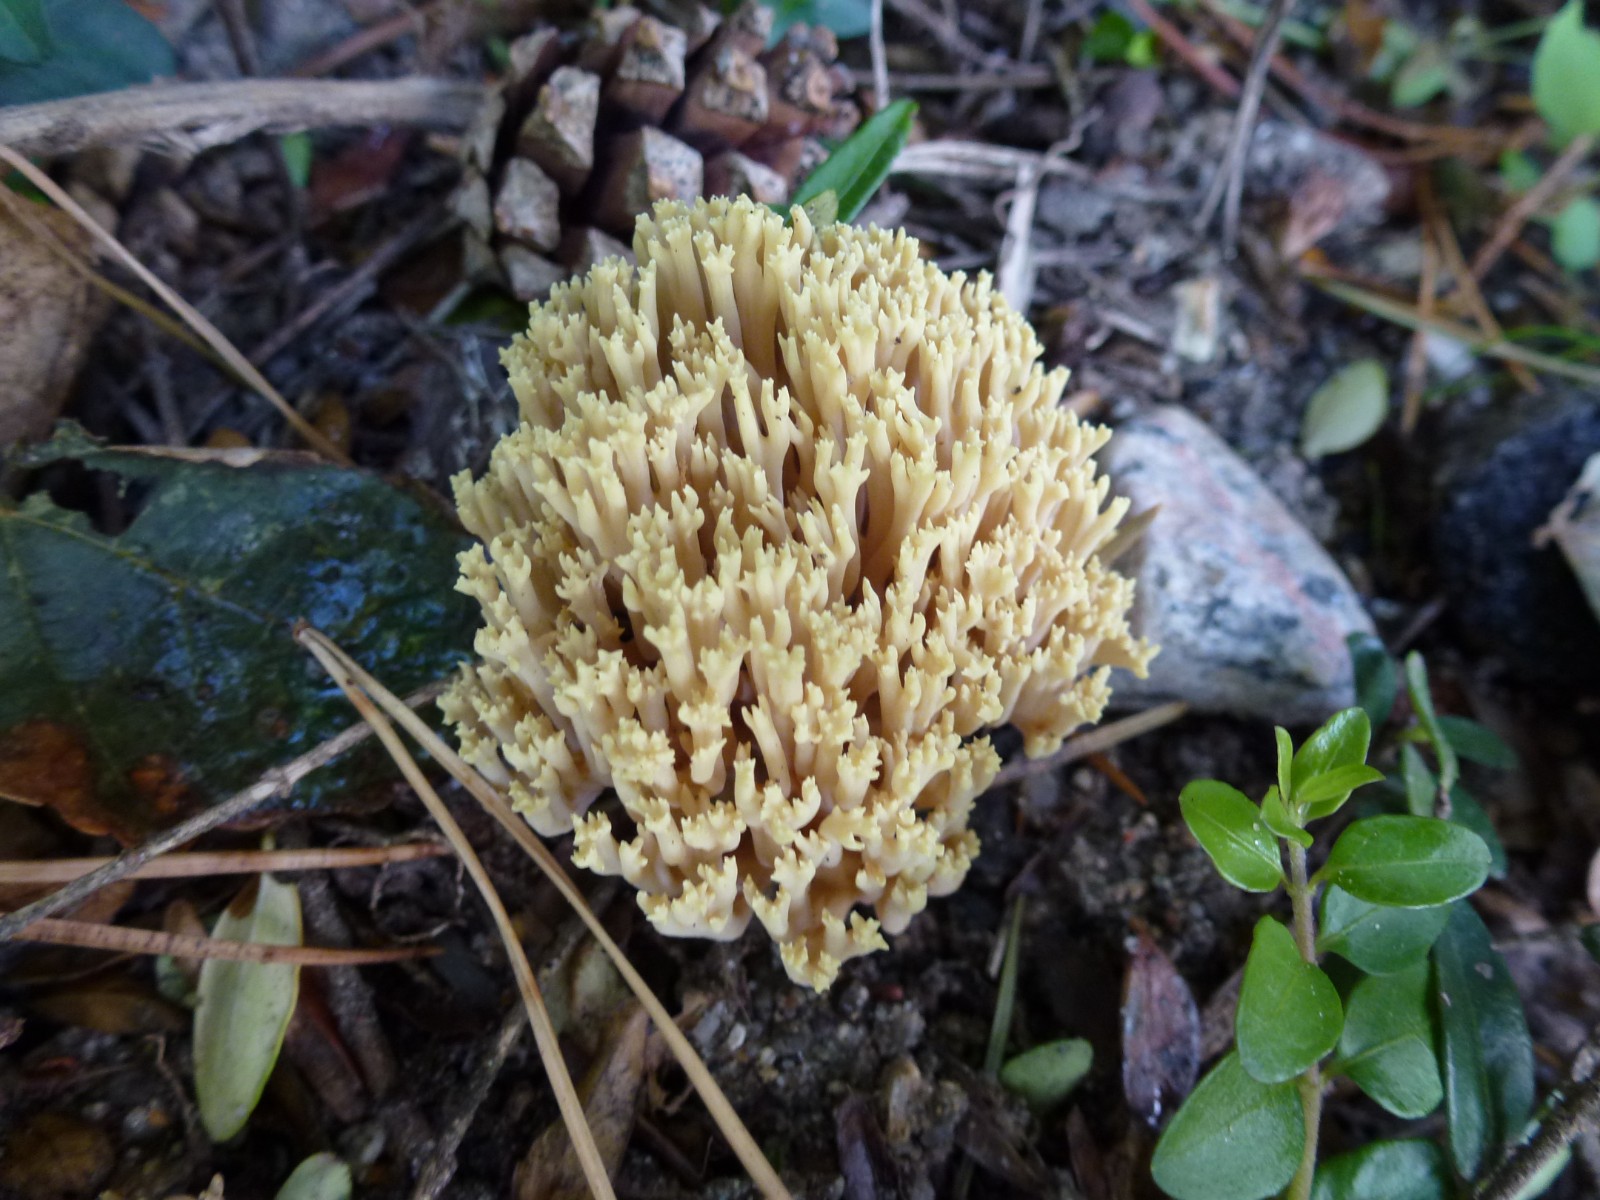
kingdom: Fungi
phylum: Basidiomycota
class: Agaricomycetes
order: Gomphales
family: Gomphaceae
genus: Ramaria
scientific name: Ramaria stricta
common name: rank koralsvamp
